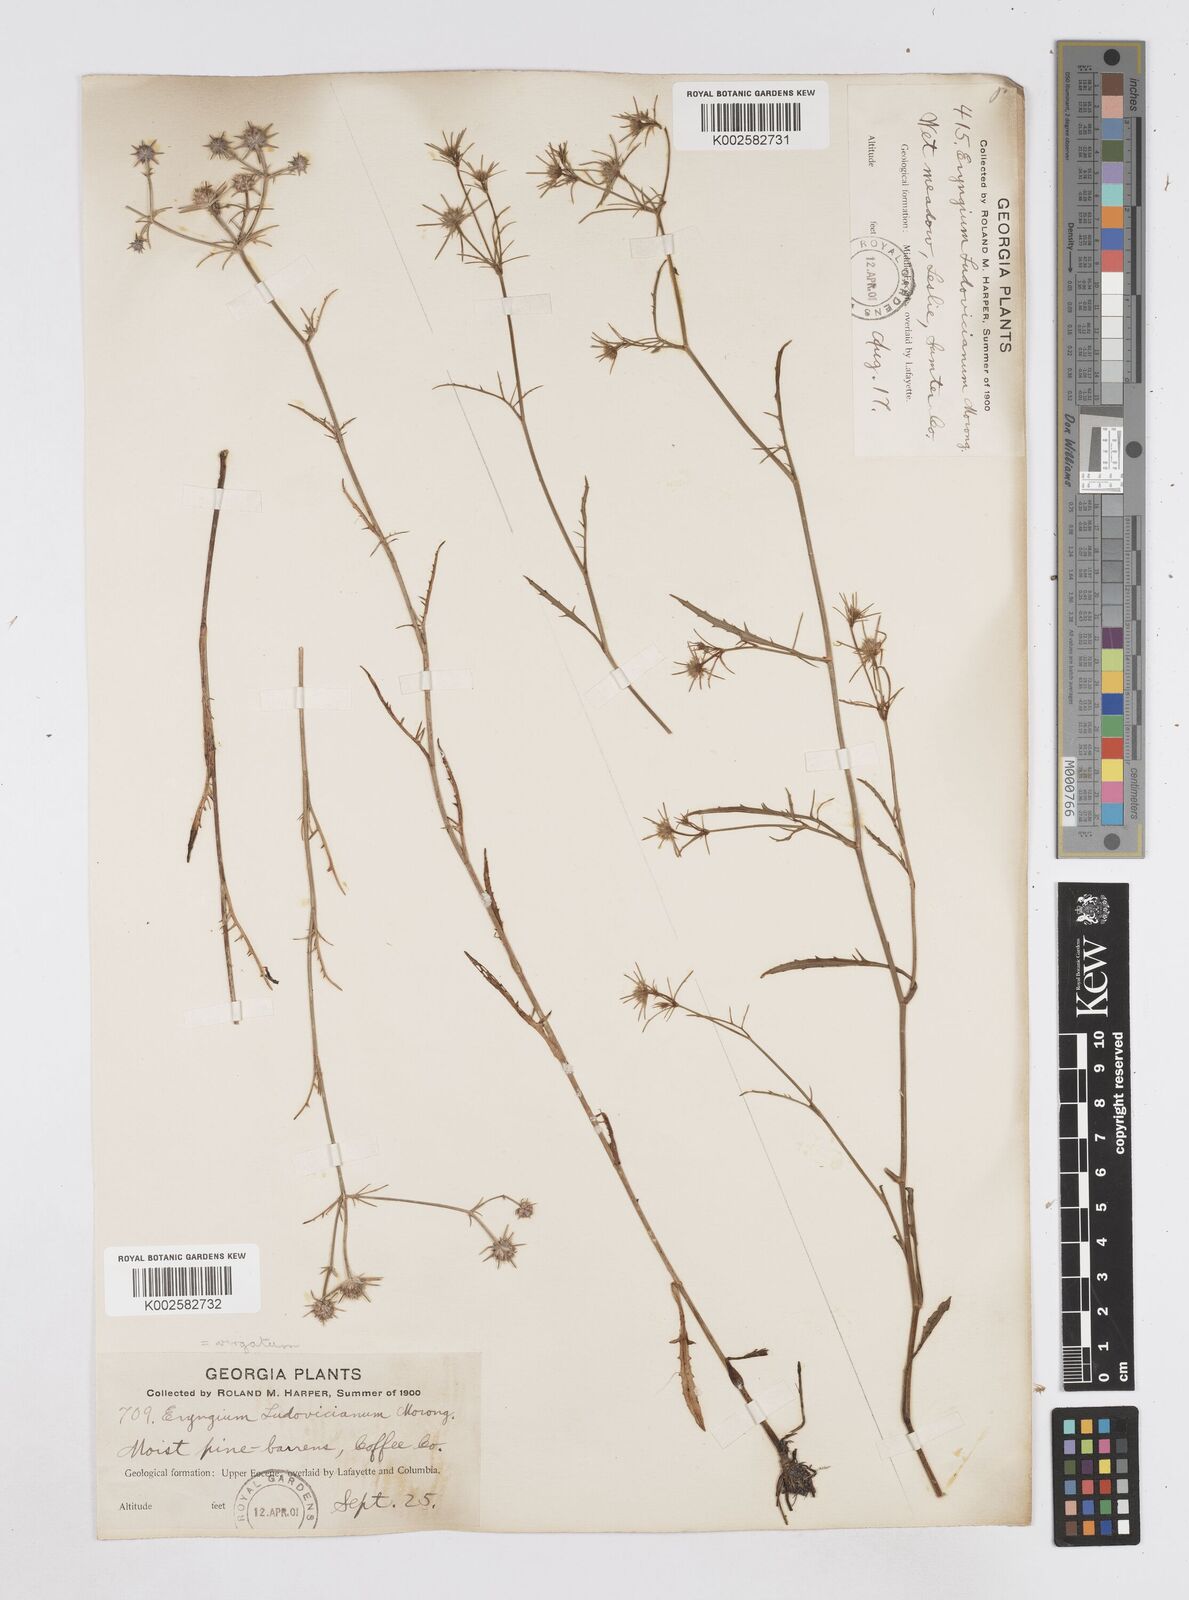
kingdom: Plantae
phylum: Tracheophyta
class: Magnoliopsida
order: Apiales
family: Apiaceae
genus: Eryngium
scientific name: Eryngium integrifolium
